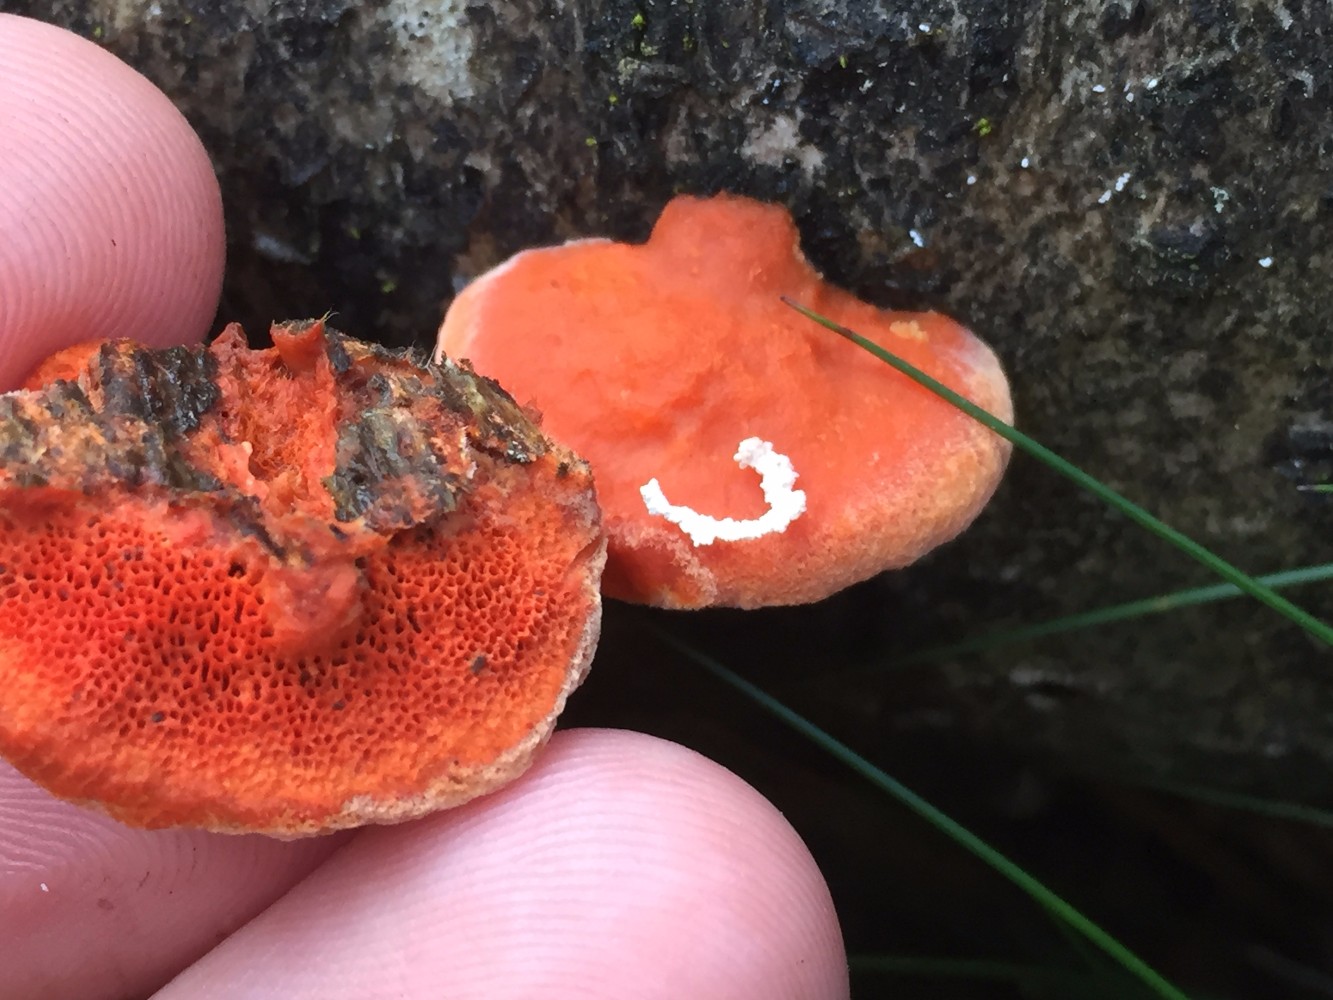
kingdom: Fungi
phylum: Basidiomycota
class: Agaricomycetes
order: Polyporales
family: Polyporaceae
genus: Trametes
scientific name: Trametes cinnabarina
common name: cinnoberporesvamp
